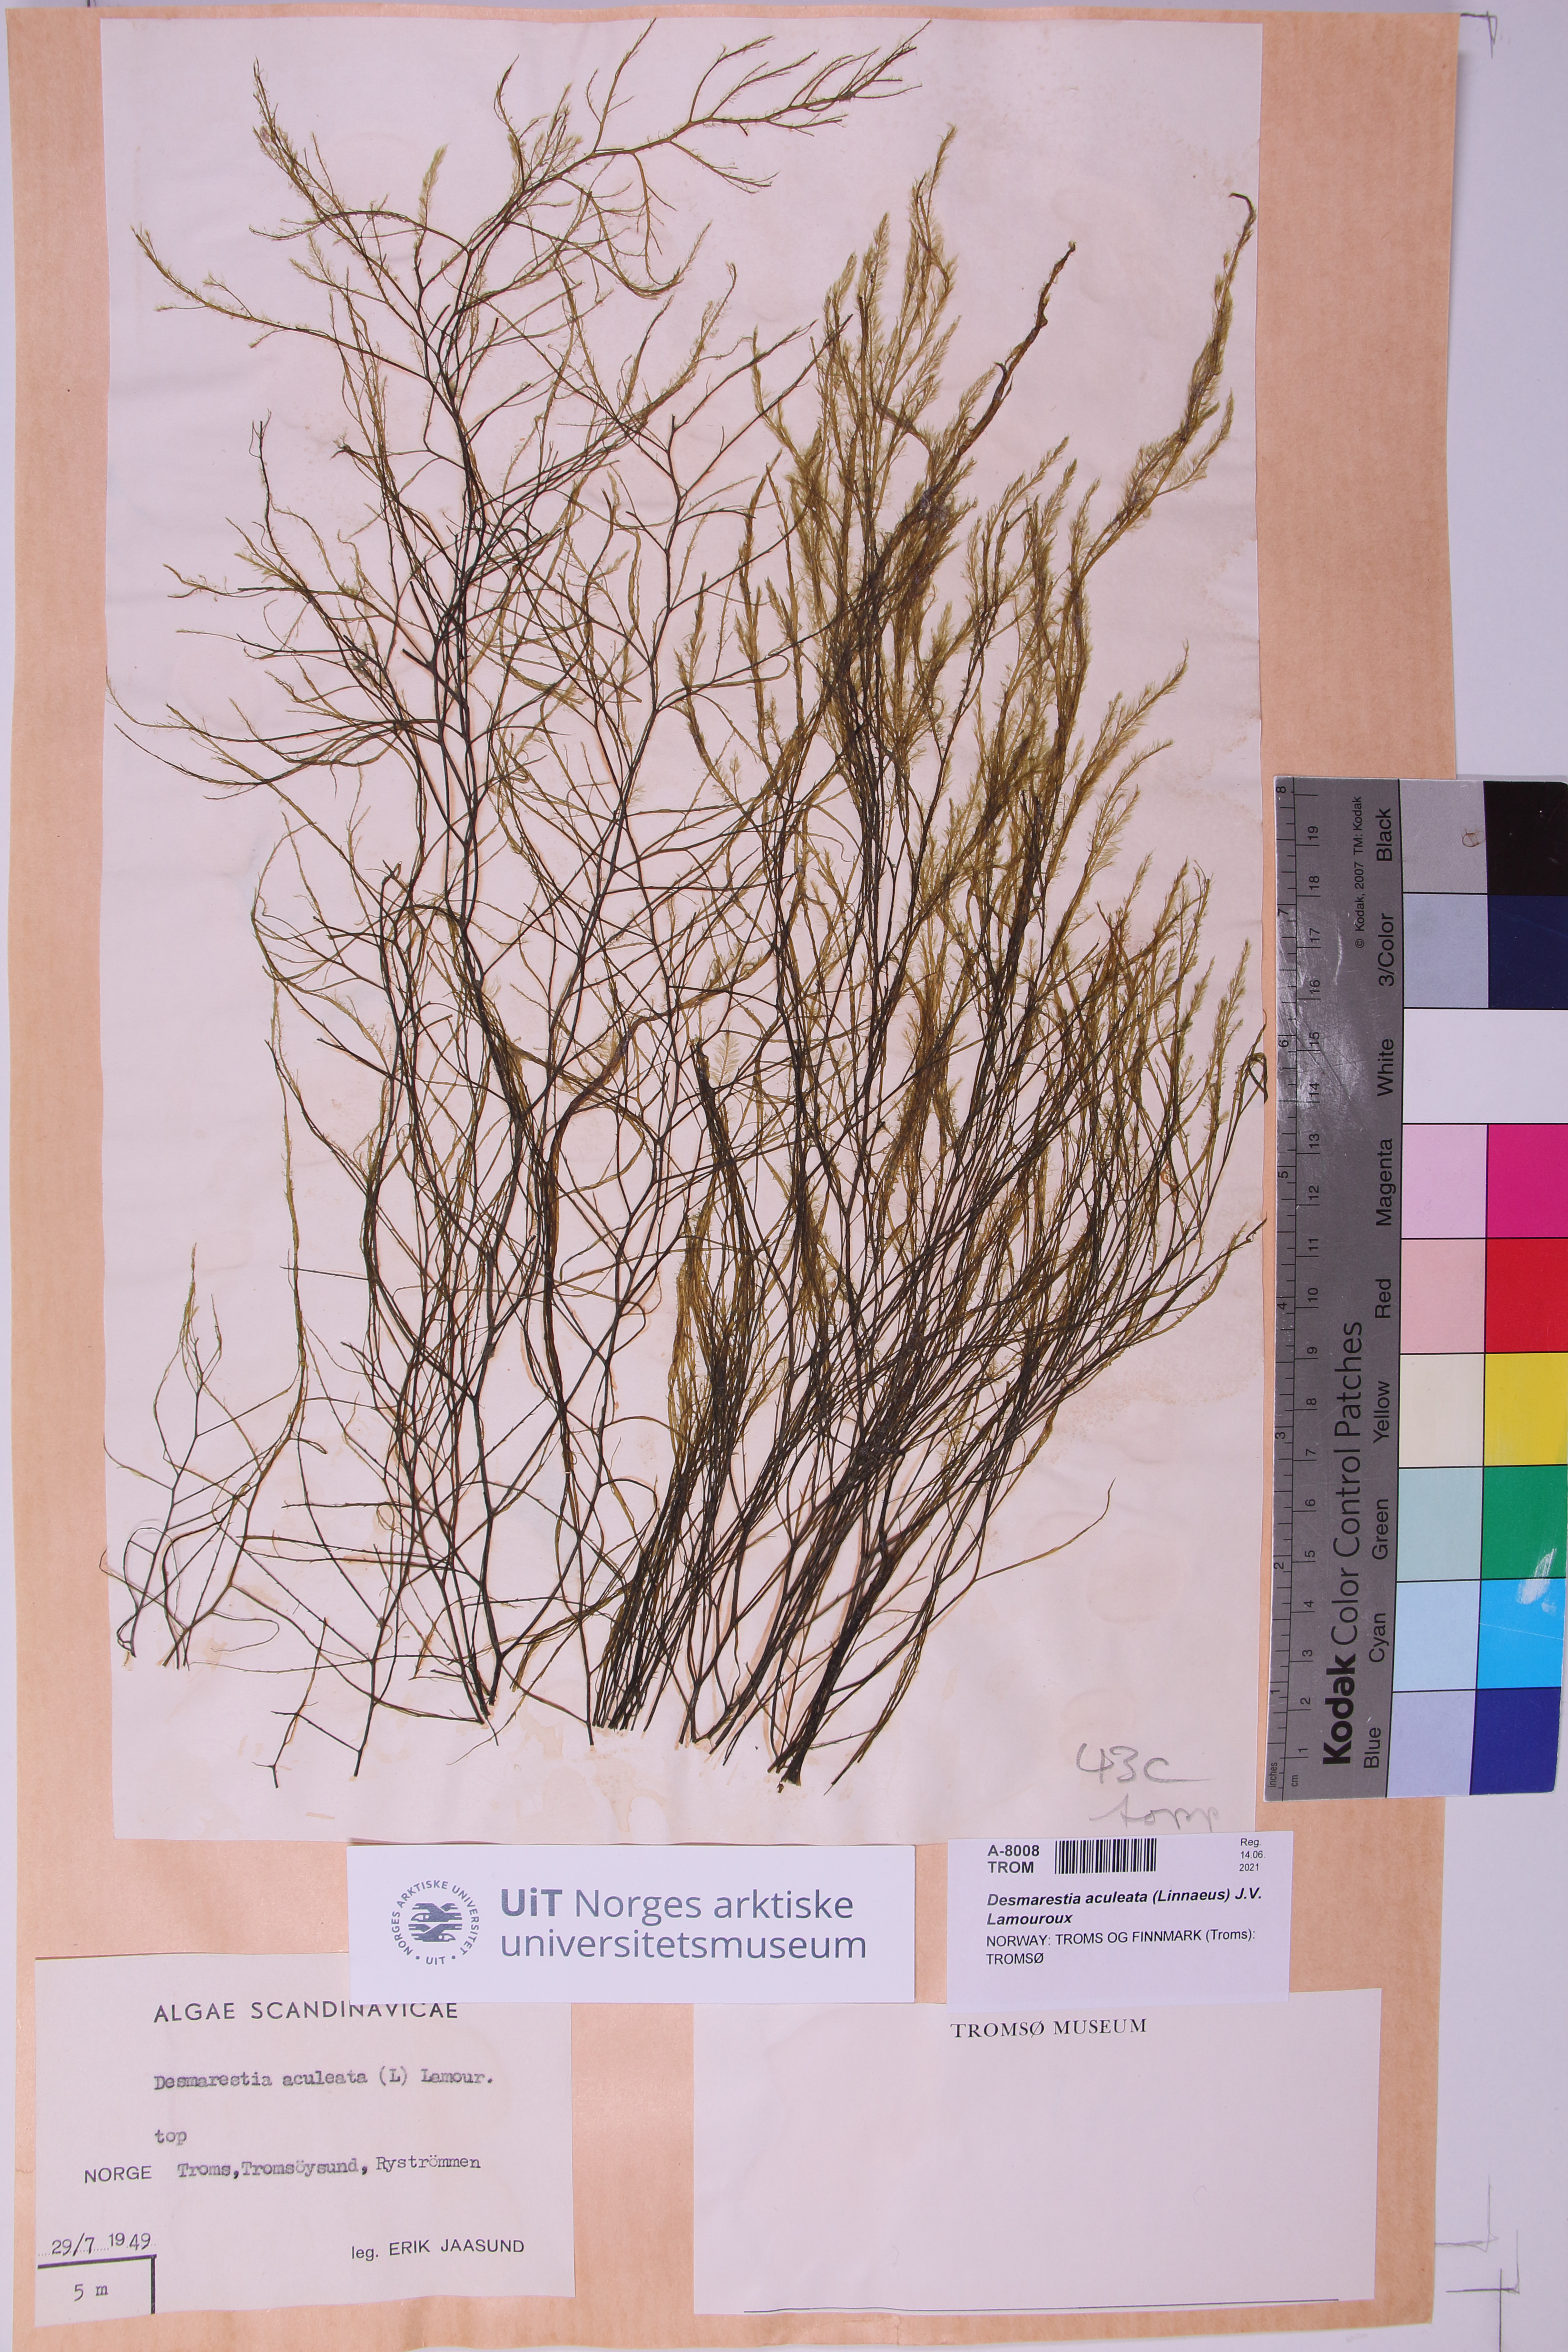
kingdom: Chromista
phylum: Ochrophyta
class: Phaeophyceae
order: Desmarestiales
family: Desmarestiaceae
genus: Desmarestia
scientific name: Desmarestia aculeata
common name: Witch's hair
